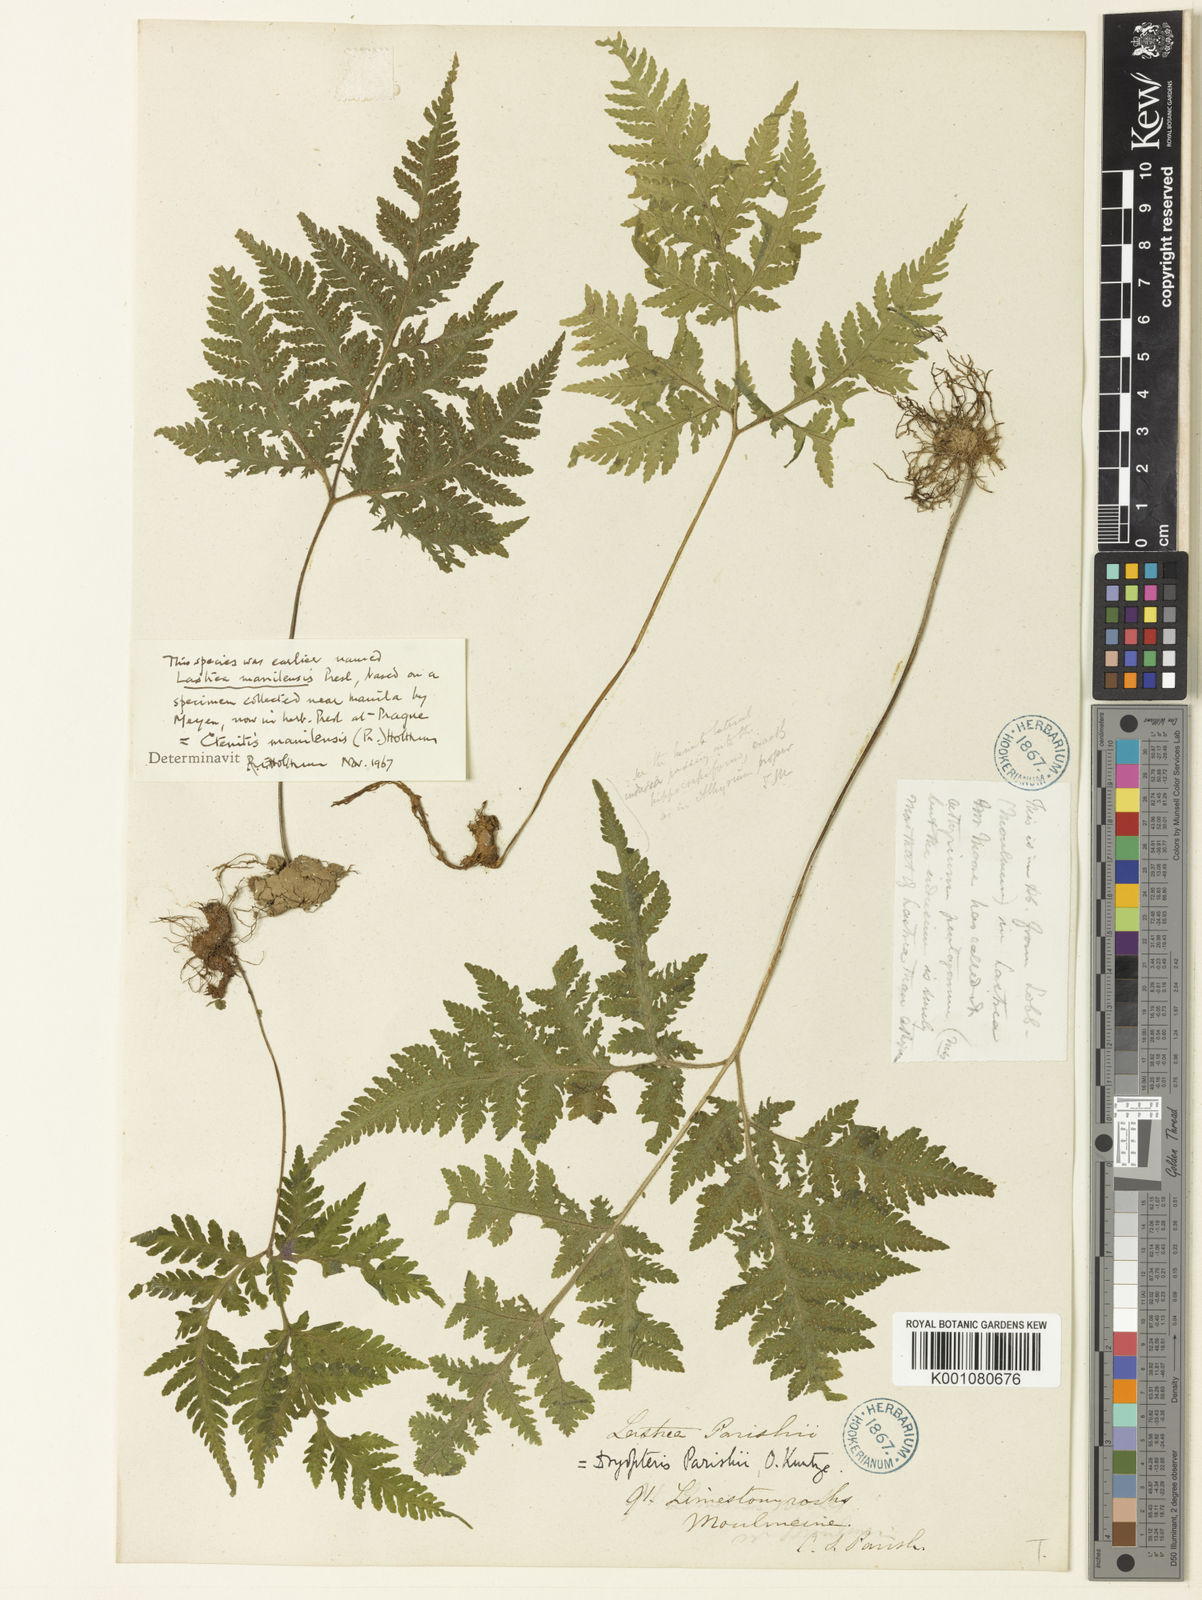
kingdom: Plantae
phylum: Tracheophyta
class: Polypodiopsida
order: Polypodiales
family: Tectariaceae
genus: Tectaria
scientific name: Tectaria manilensis
